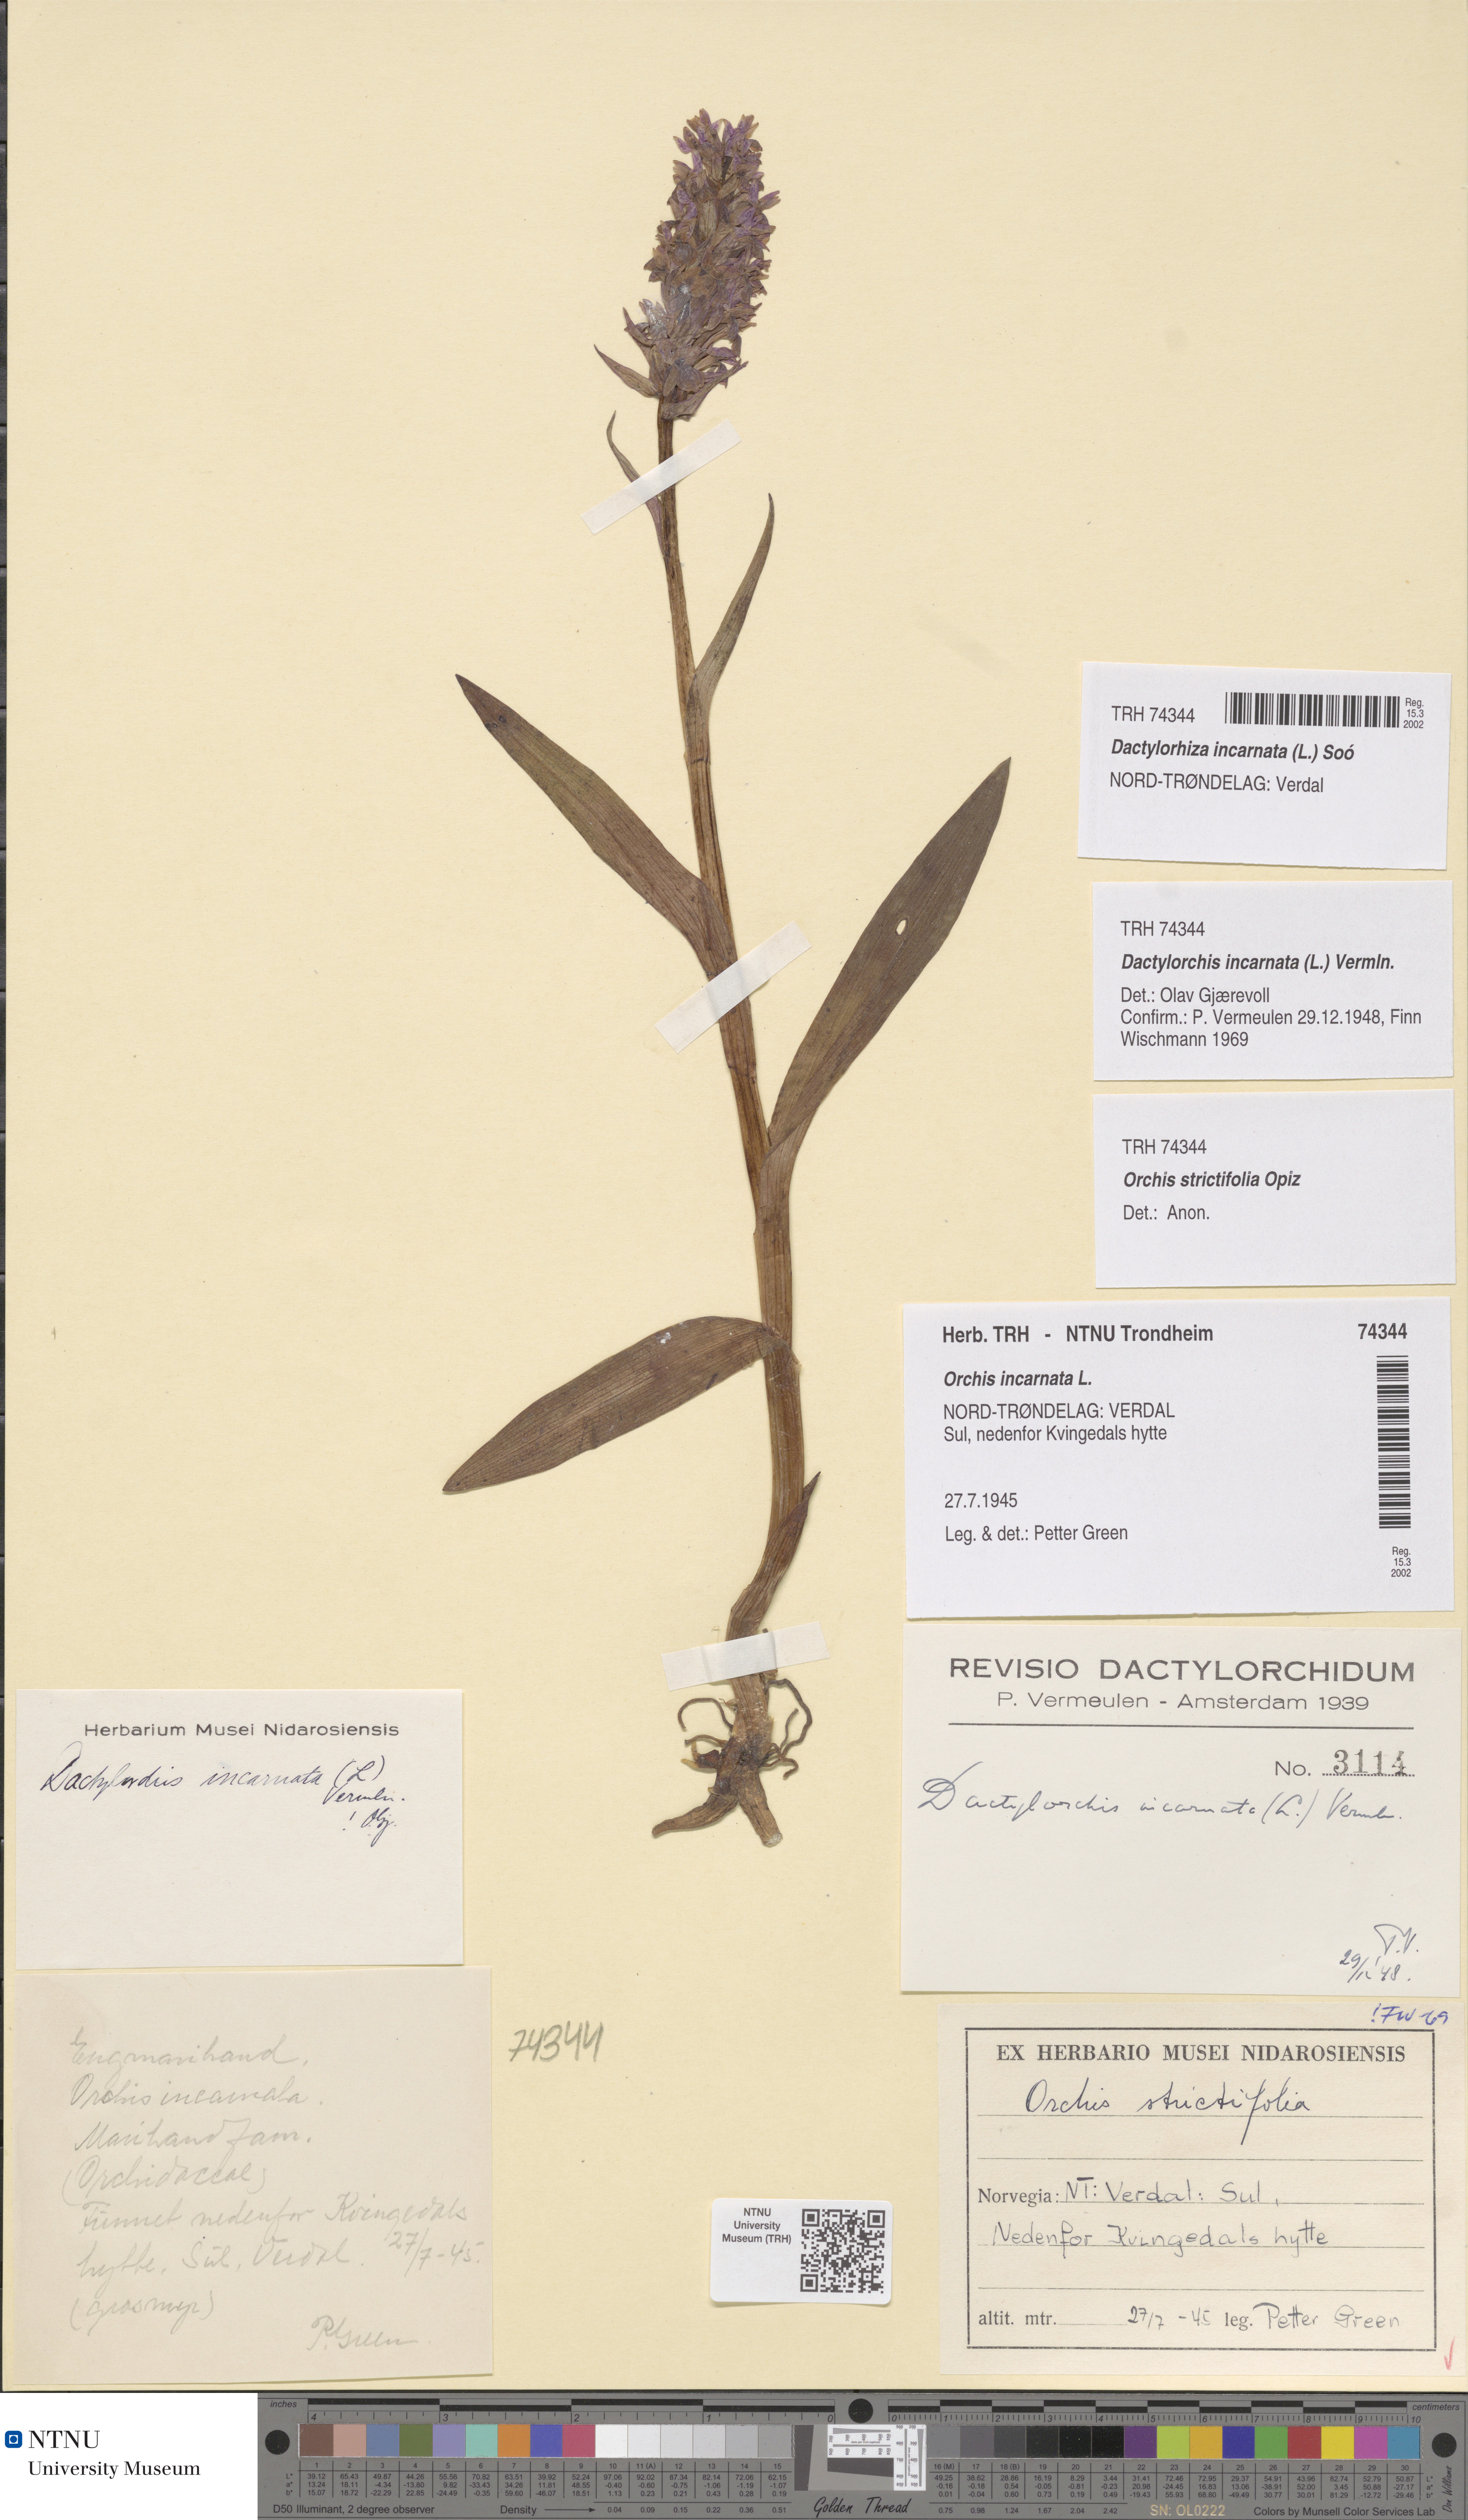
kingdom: Plantae
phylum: Tracheophyta
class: Liliopsida
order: Asparagales
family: Orchidaceae
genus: Dactylorhiza
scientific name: Dactylorhiza incarnata
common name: Early marsh-orchid
